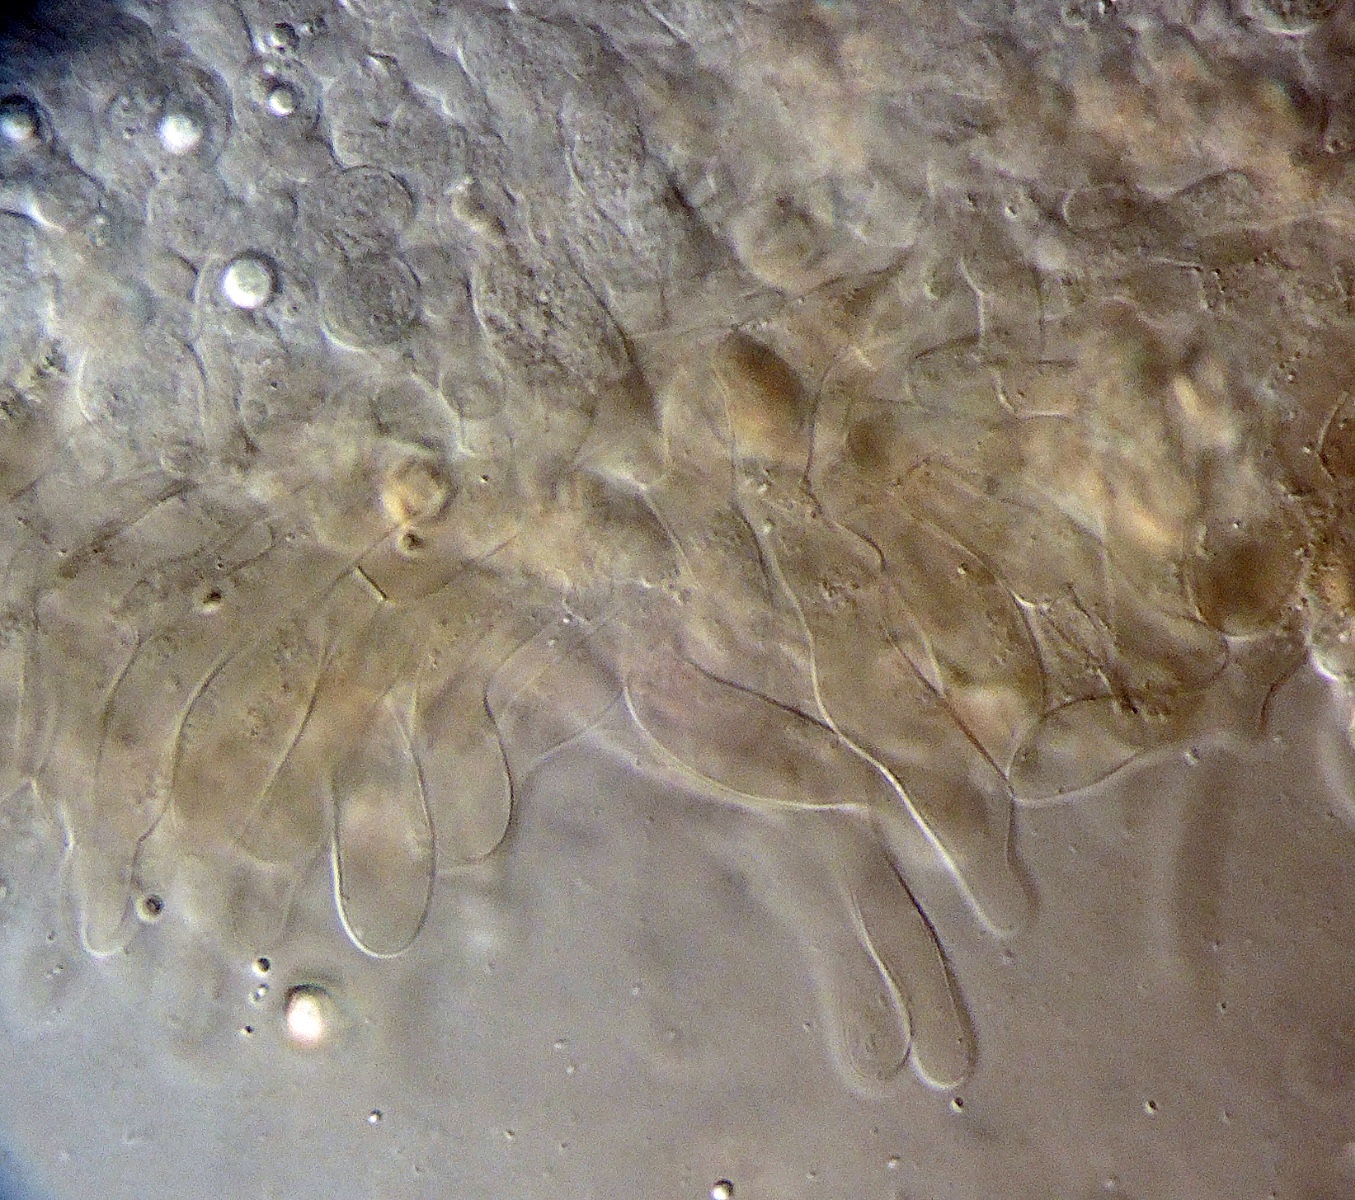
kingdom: Fungi
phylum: Basidiomycota
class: Agaricomycetes
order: Agaricales
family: Entolomataceae
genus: Entoloma
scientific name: Entoloma
